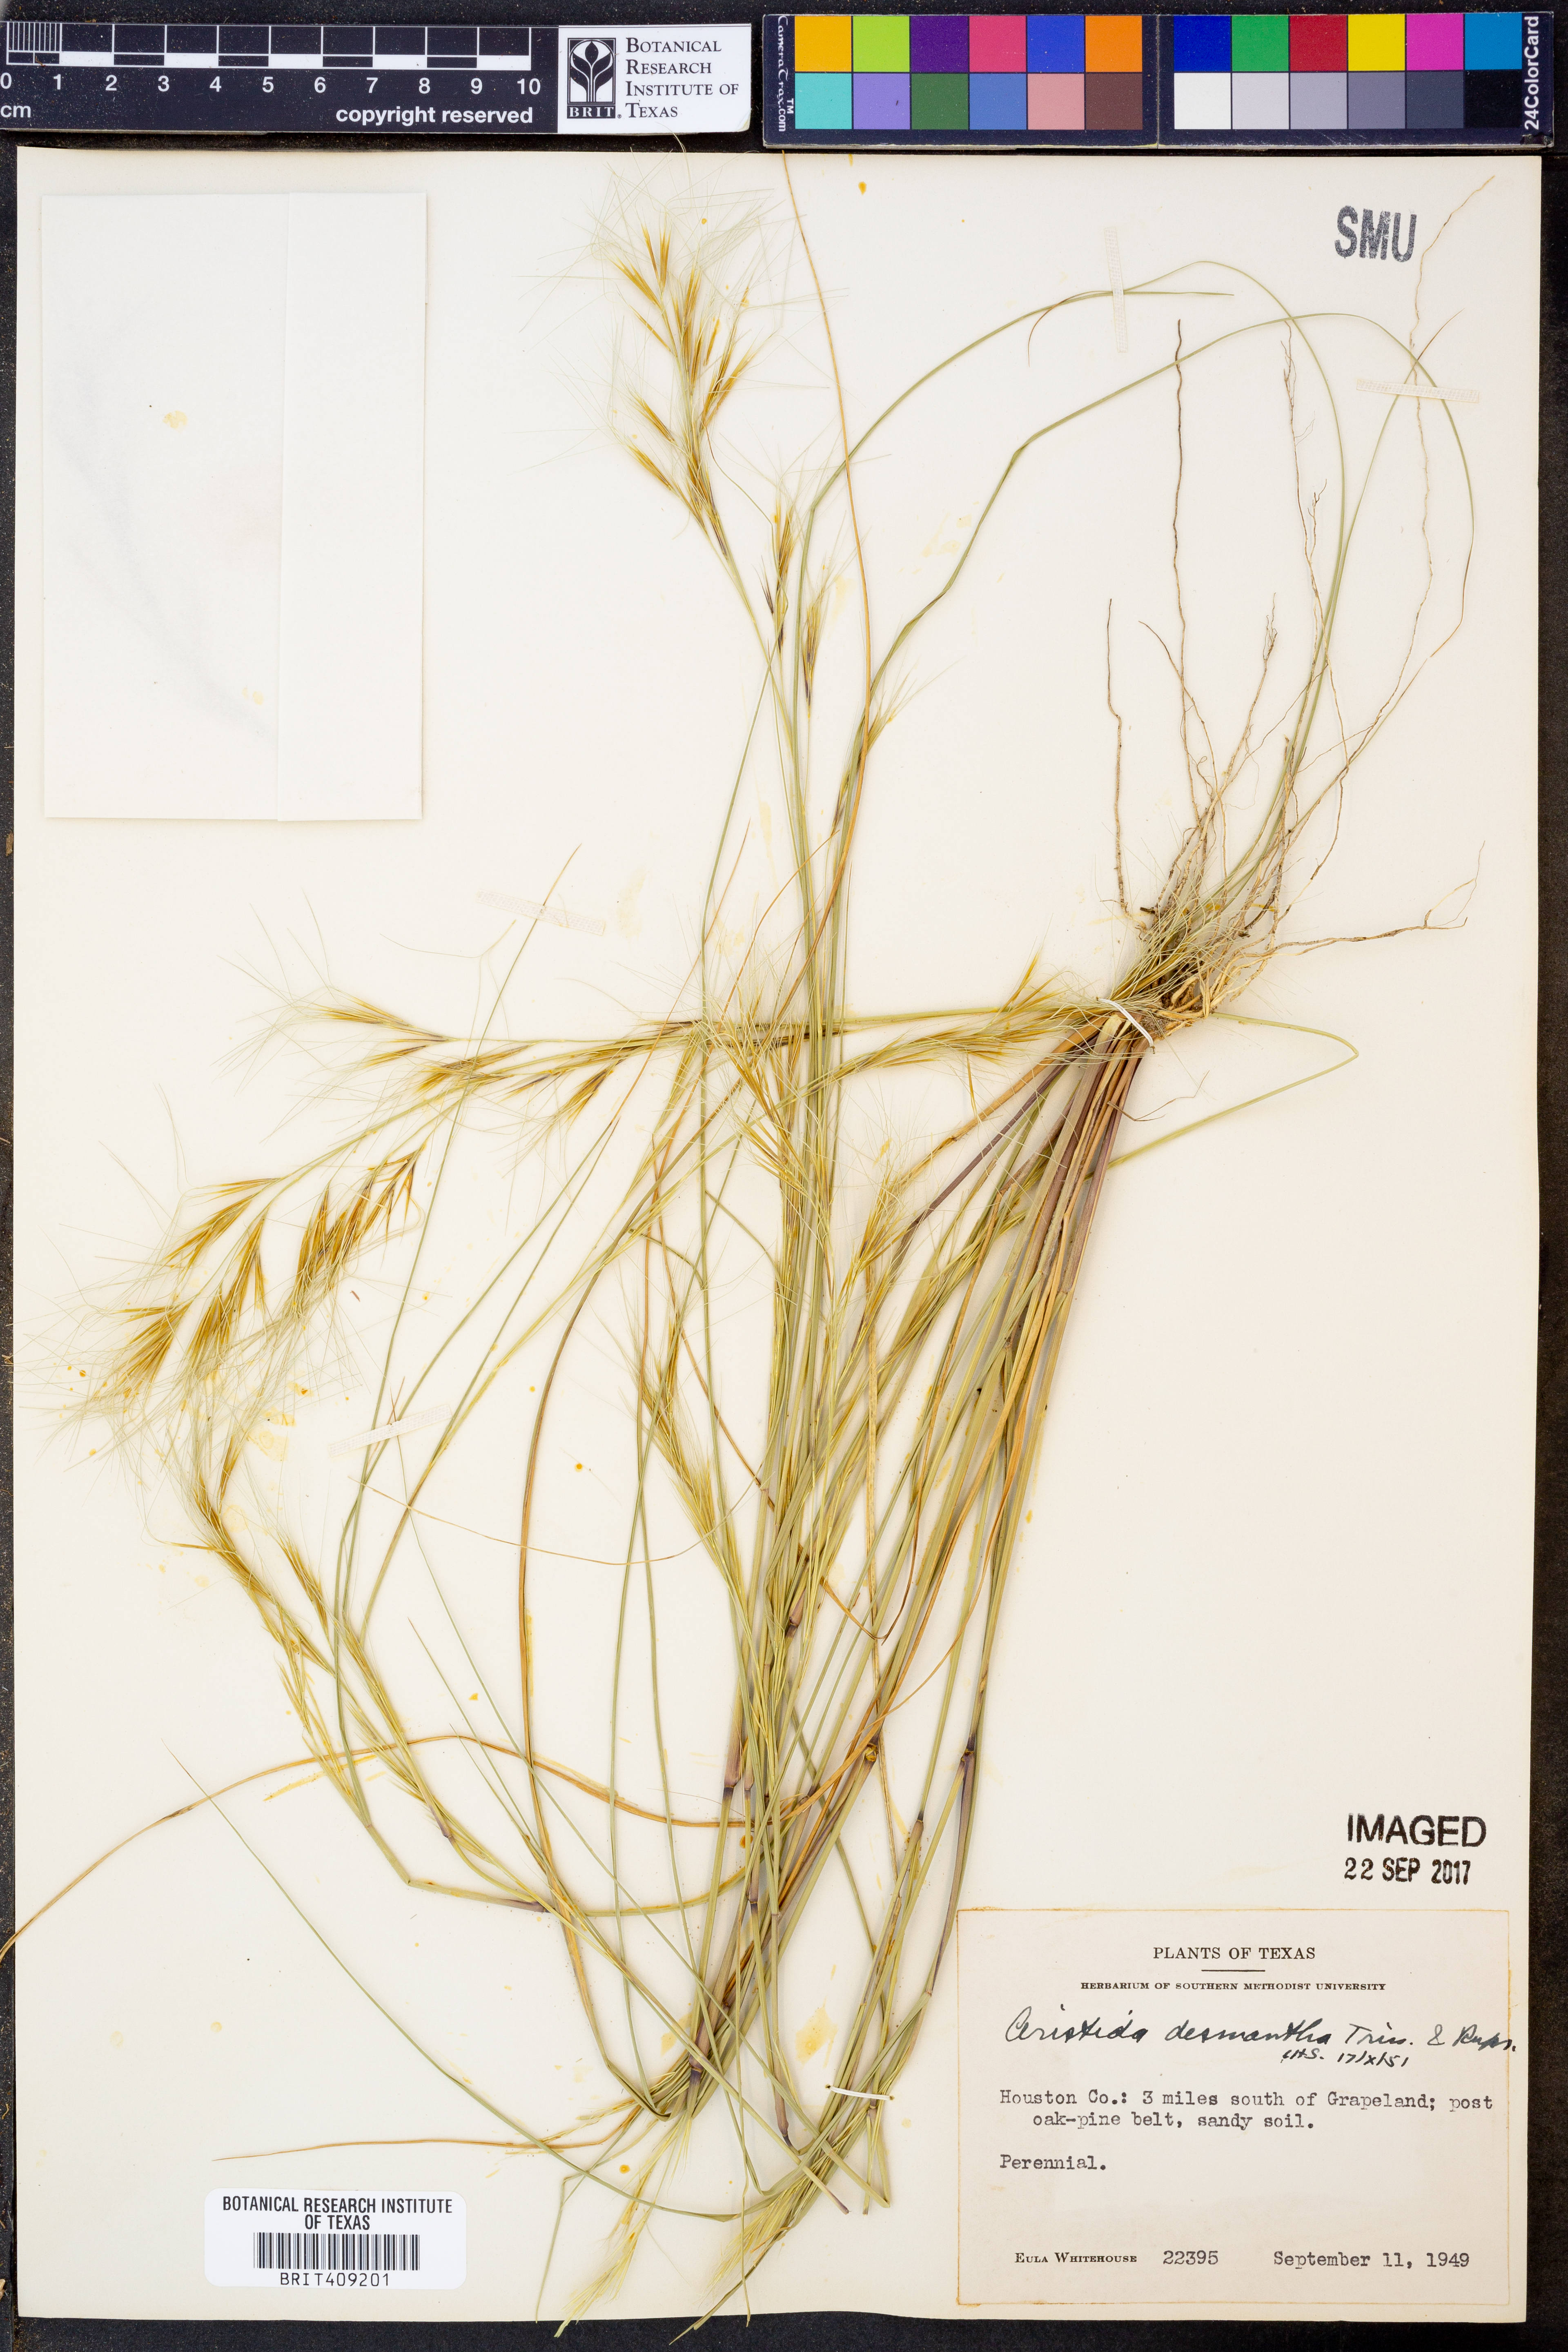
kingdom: Plantae
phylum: Tracheophyta
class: Liliopsida
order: Poales
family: Poaceae
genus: Aristida
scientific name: Aristida desmantha
